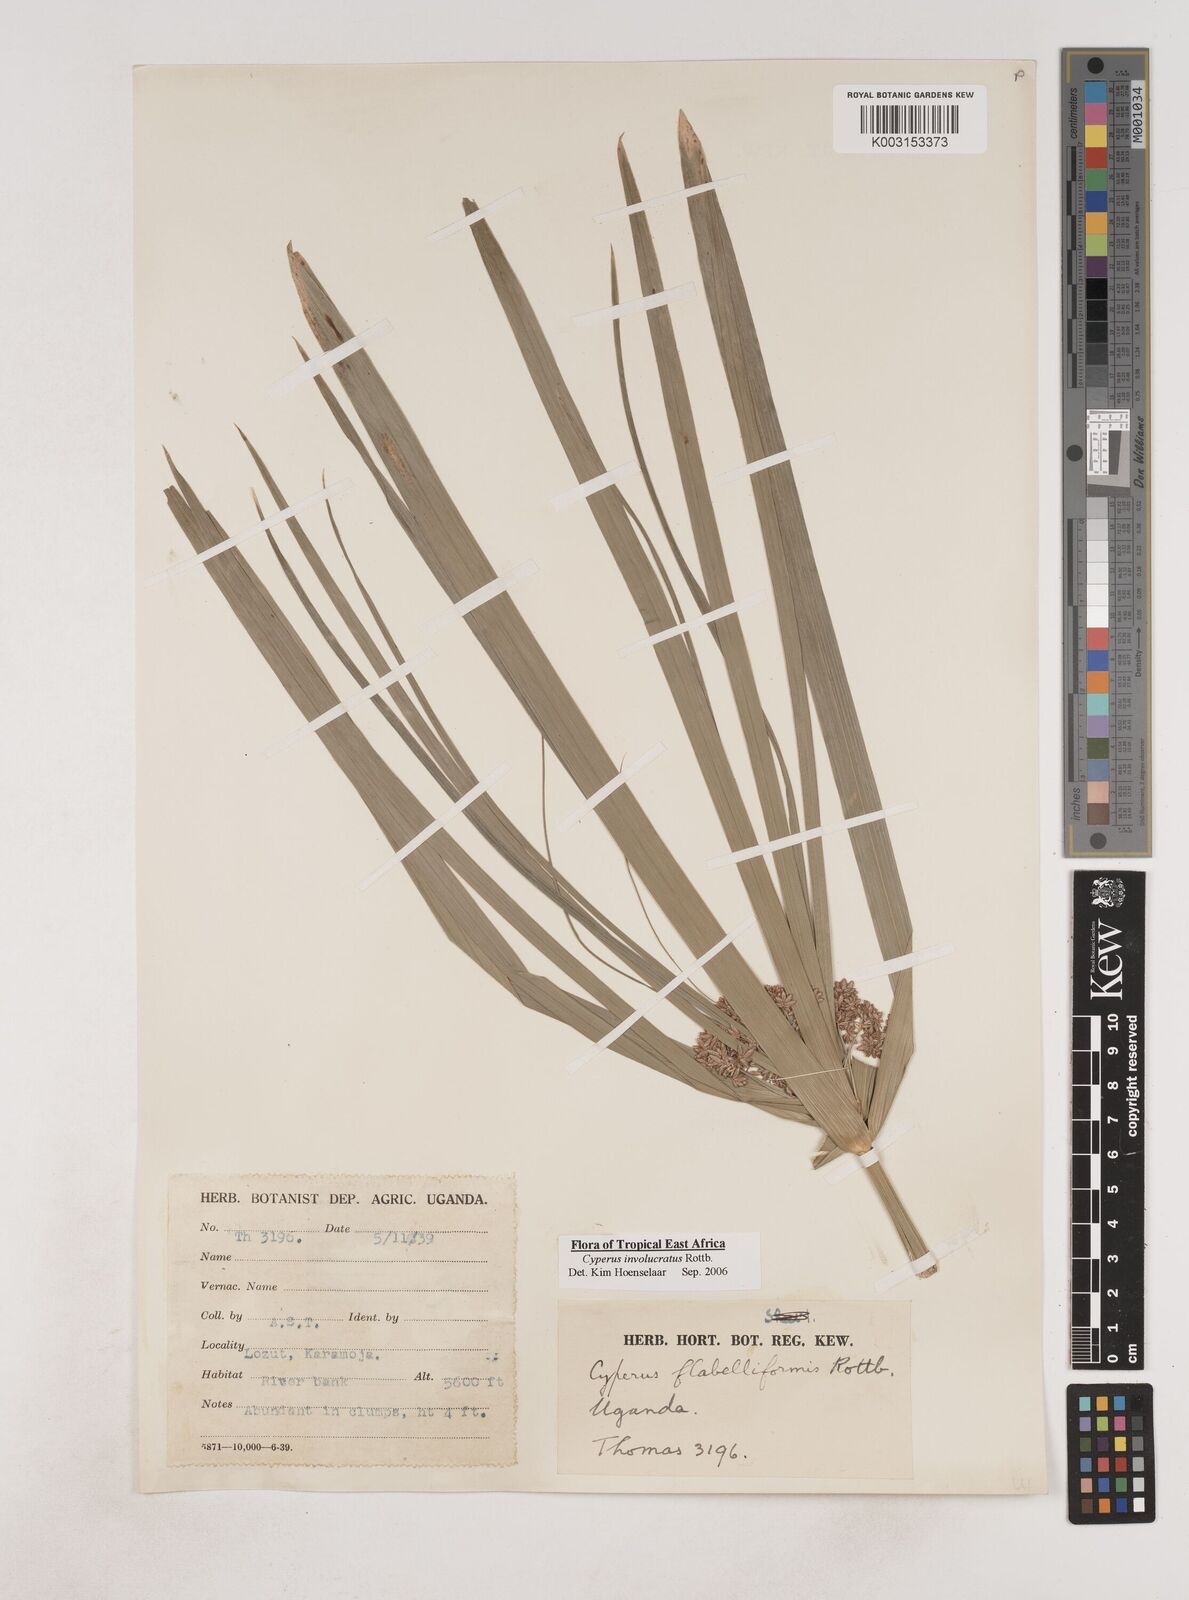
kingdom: Plantae
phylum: Tracheophyta
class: Liliopsida
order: Poales
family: Cyperaceae
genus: Cyperus
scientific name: Cyperus alternifolius
